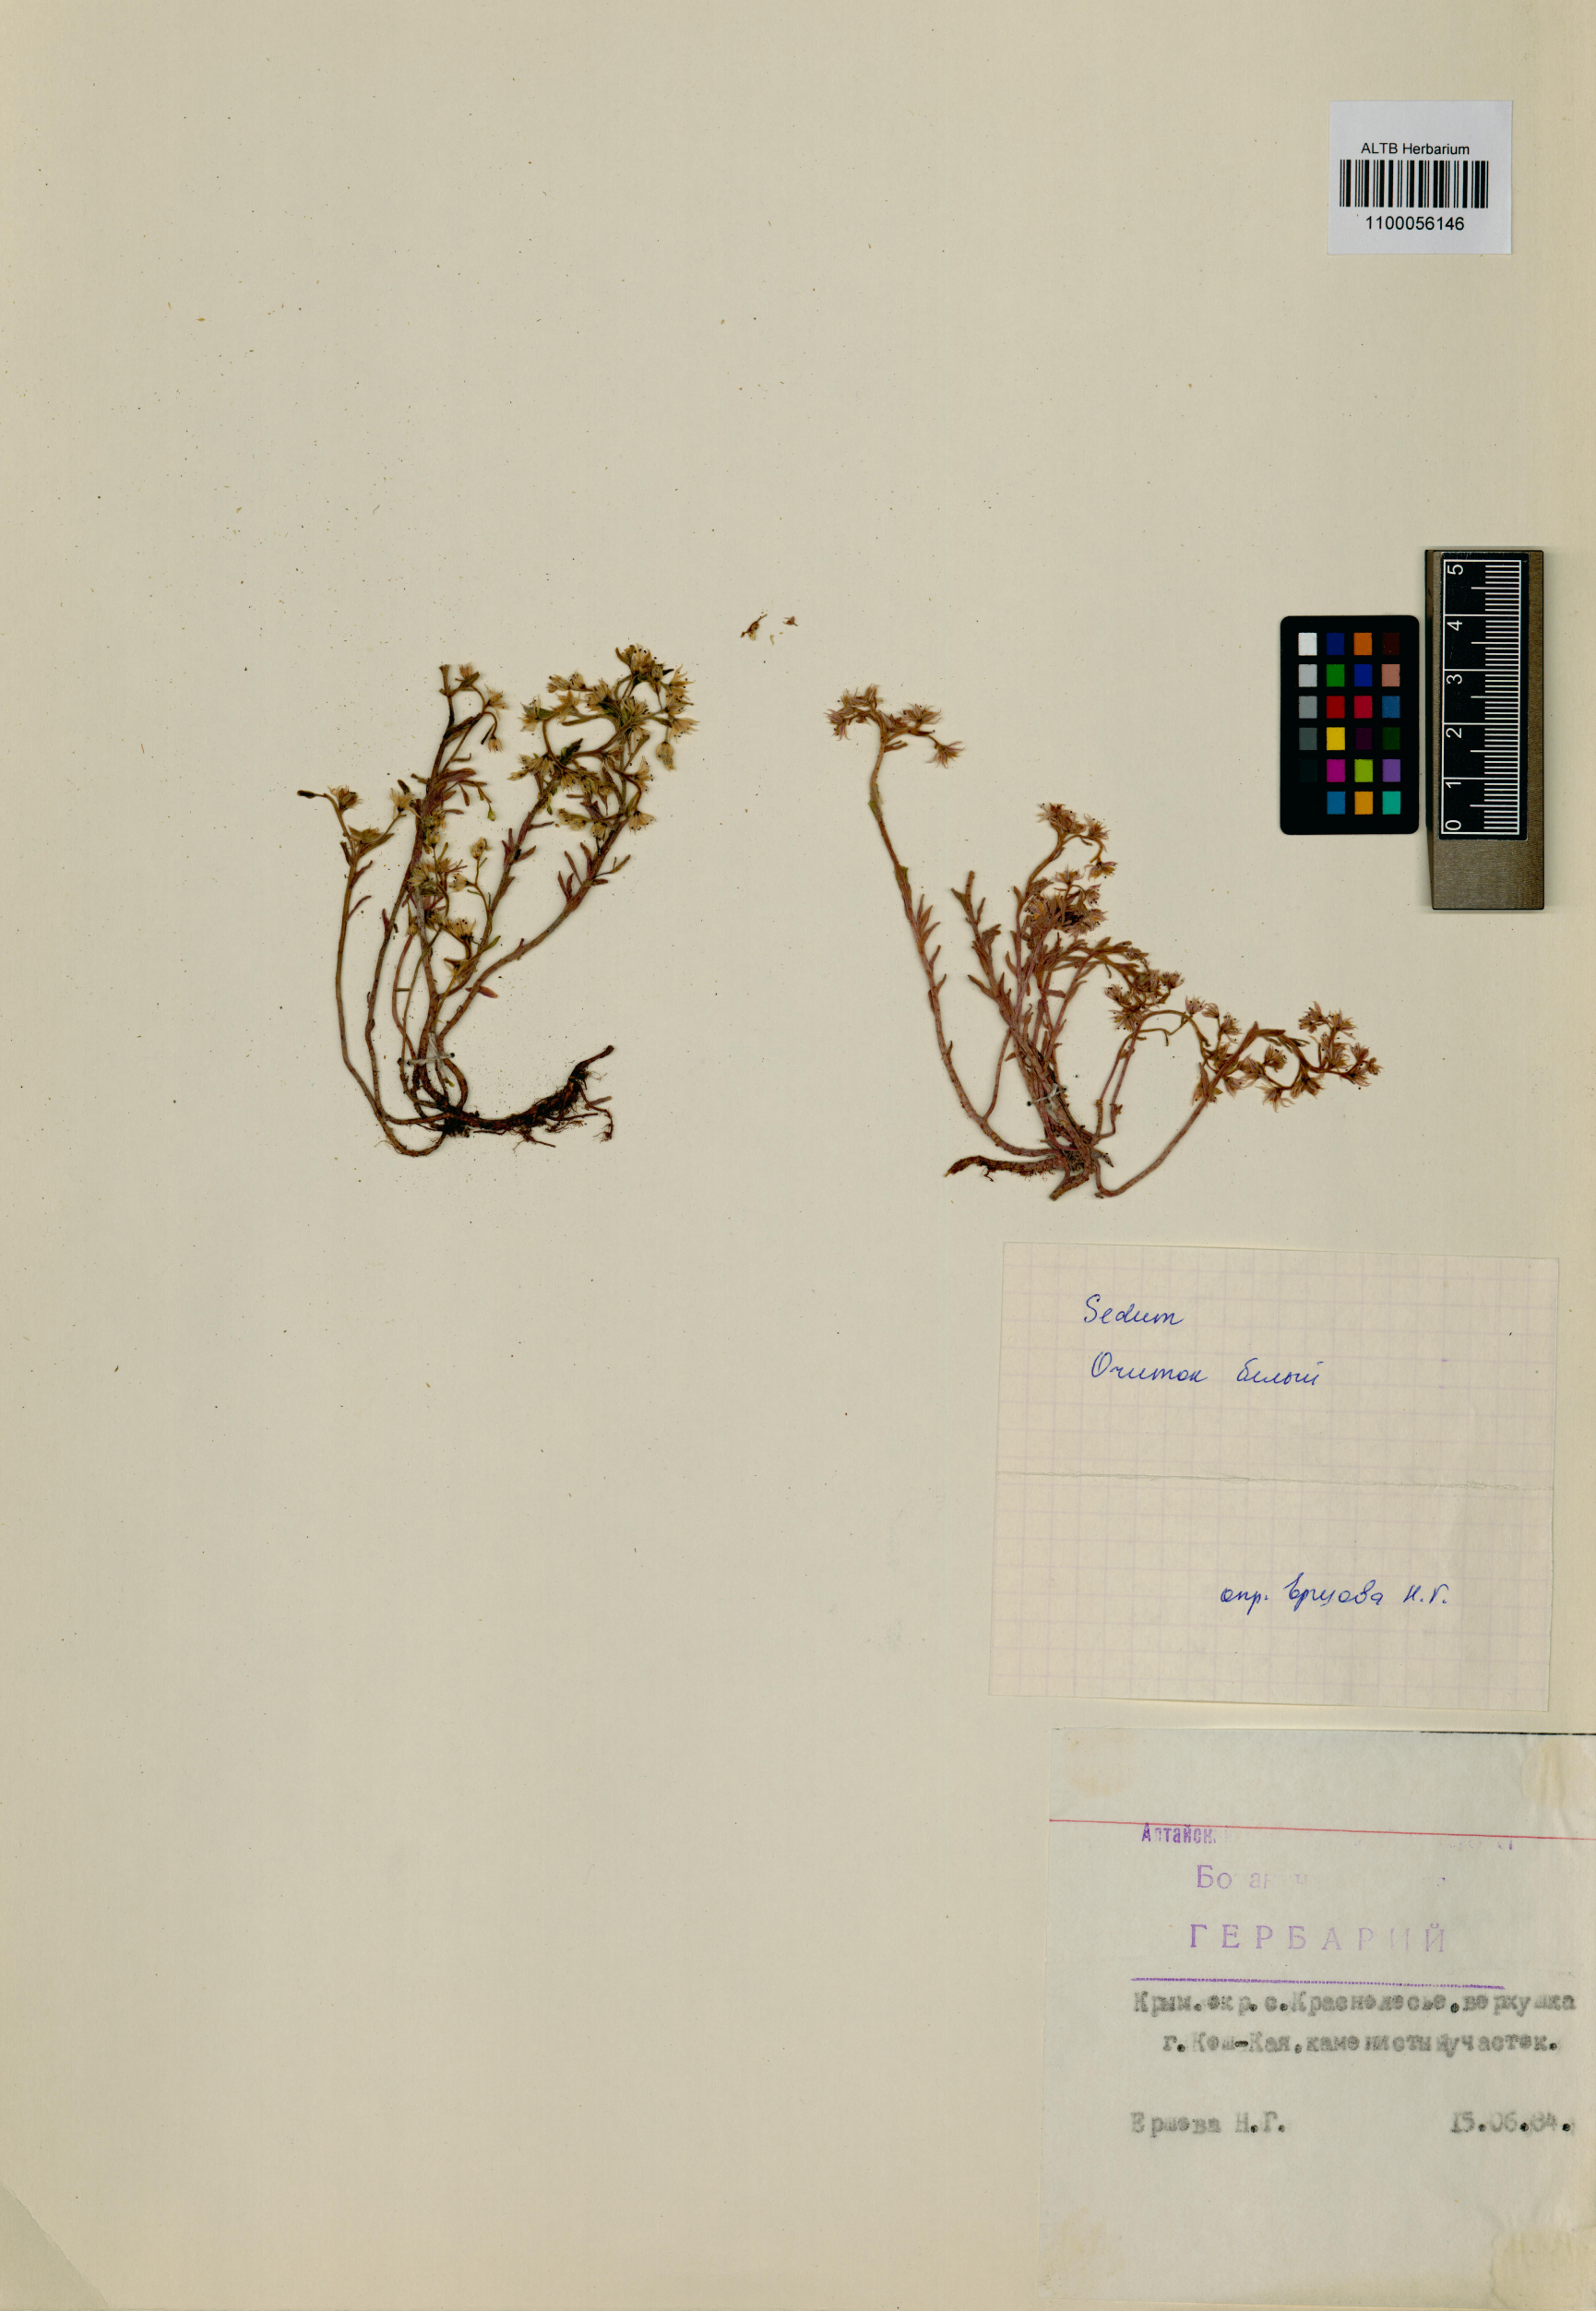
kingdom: Plantae
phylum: Tracheophyta
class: Magnoliopsida
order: Saxifragales
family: Crassulaceae
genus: Hylotelephium
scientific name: Hylotelephium ewersii
